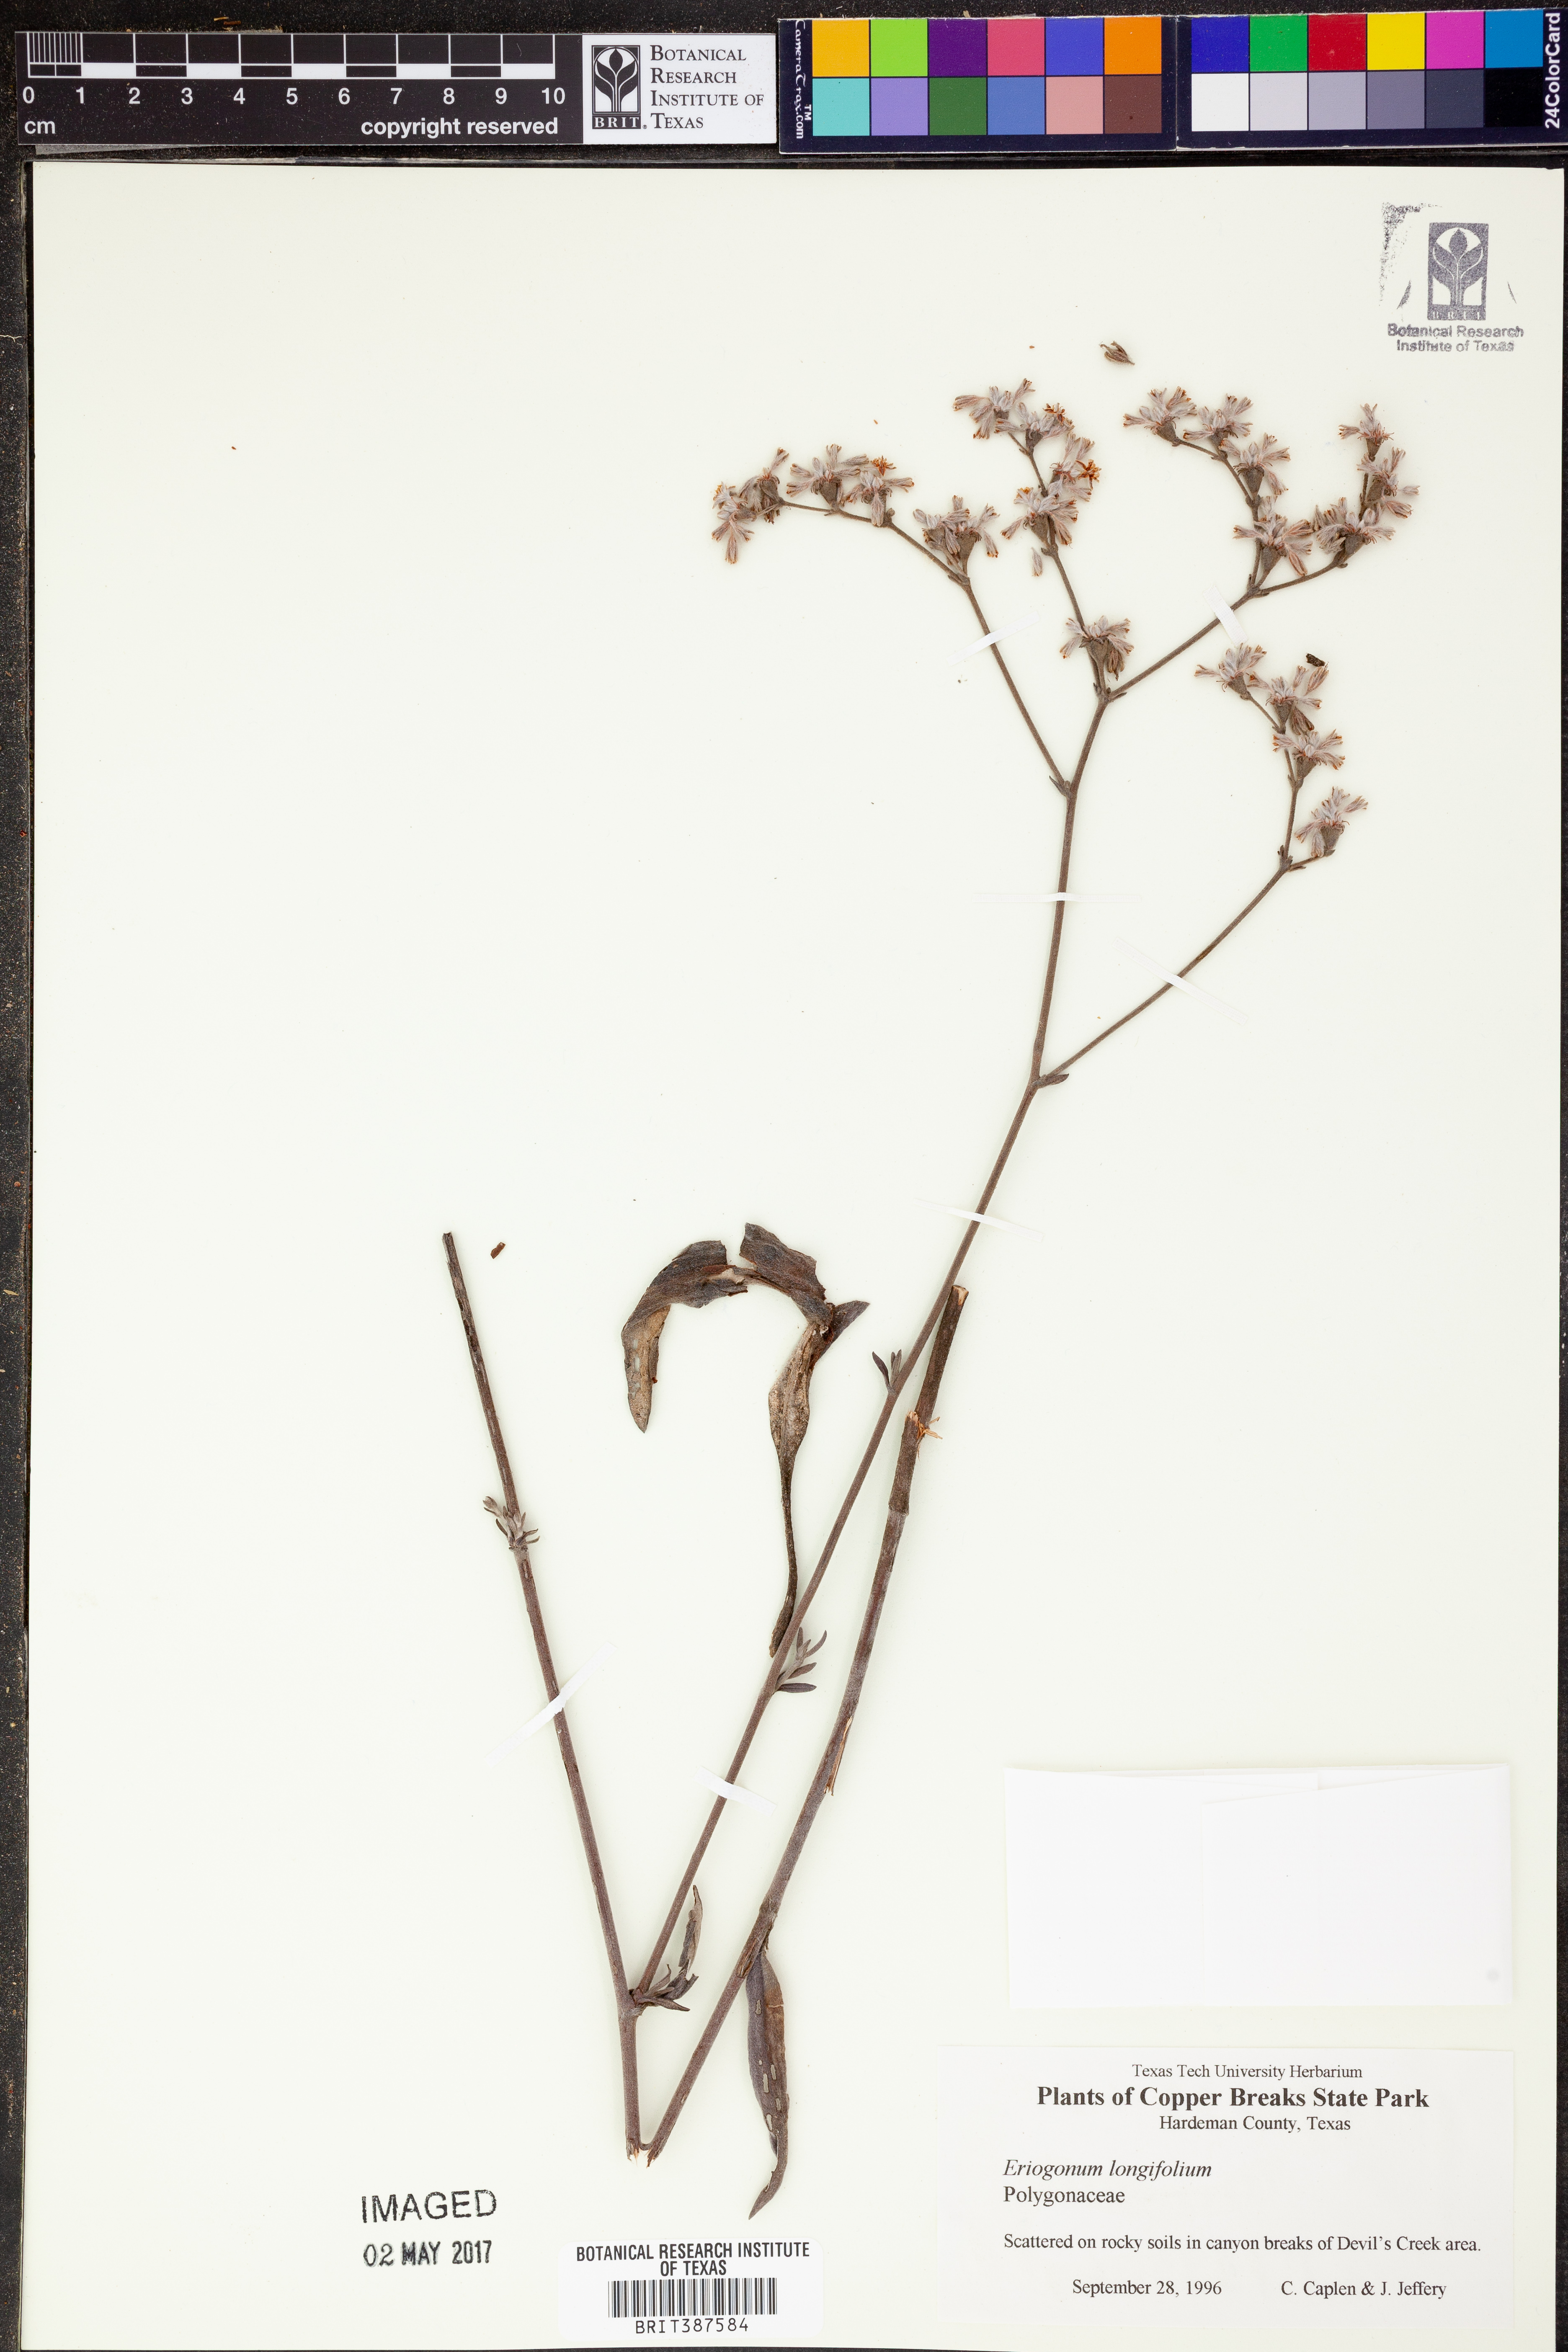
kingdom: Plantae
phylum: Tracheophyta
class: Magnoliopsida
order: Caryophyllales
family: Polygonaceae
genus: Eriogonum
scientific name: Eriogonum longifolium
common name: Longleaf wild buckwheat
